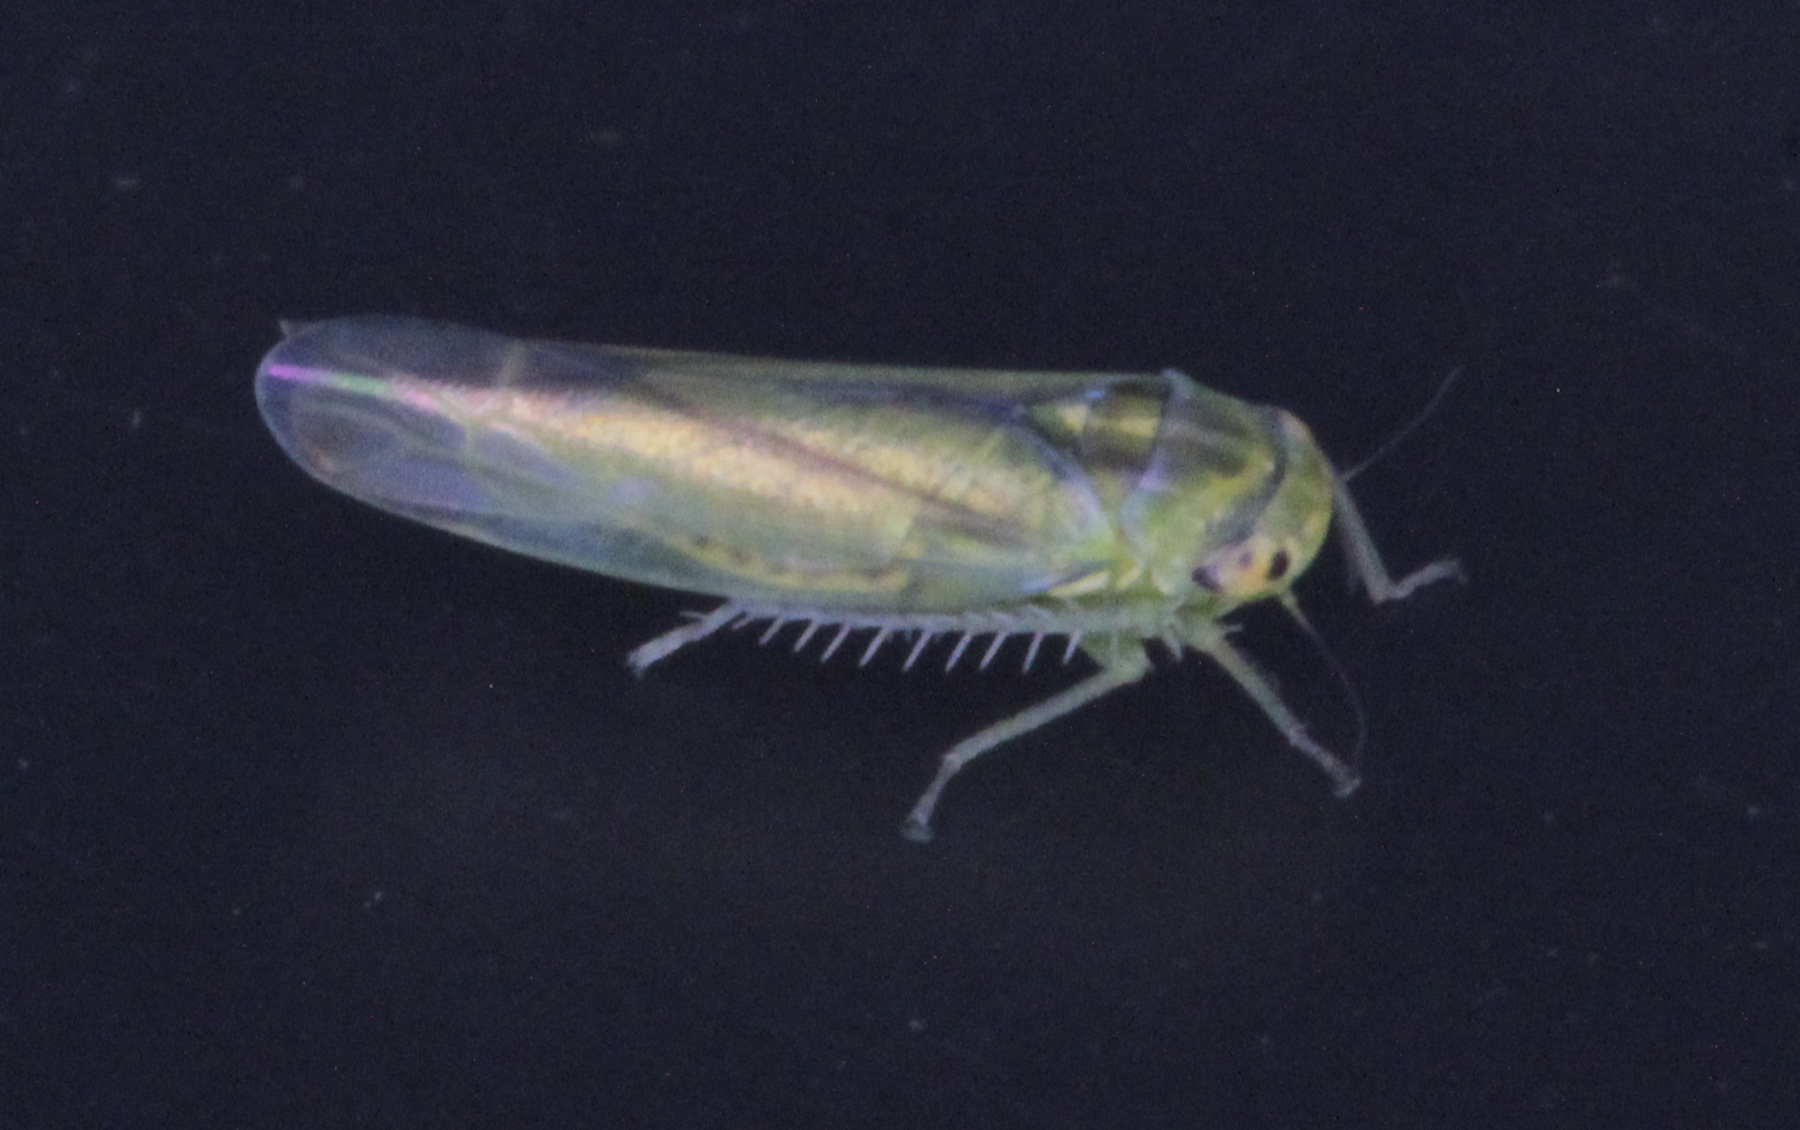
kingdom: Animalia
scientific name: Animalia
